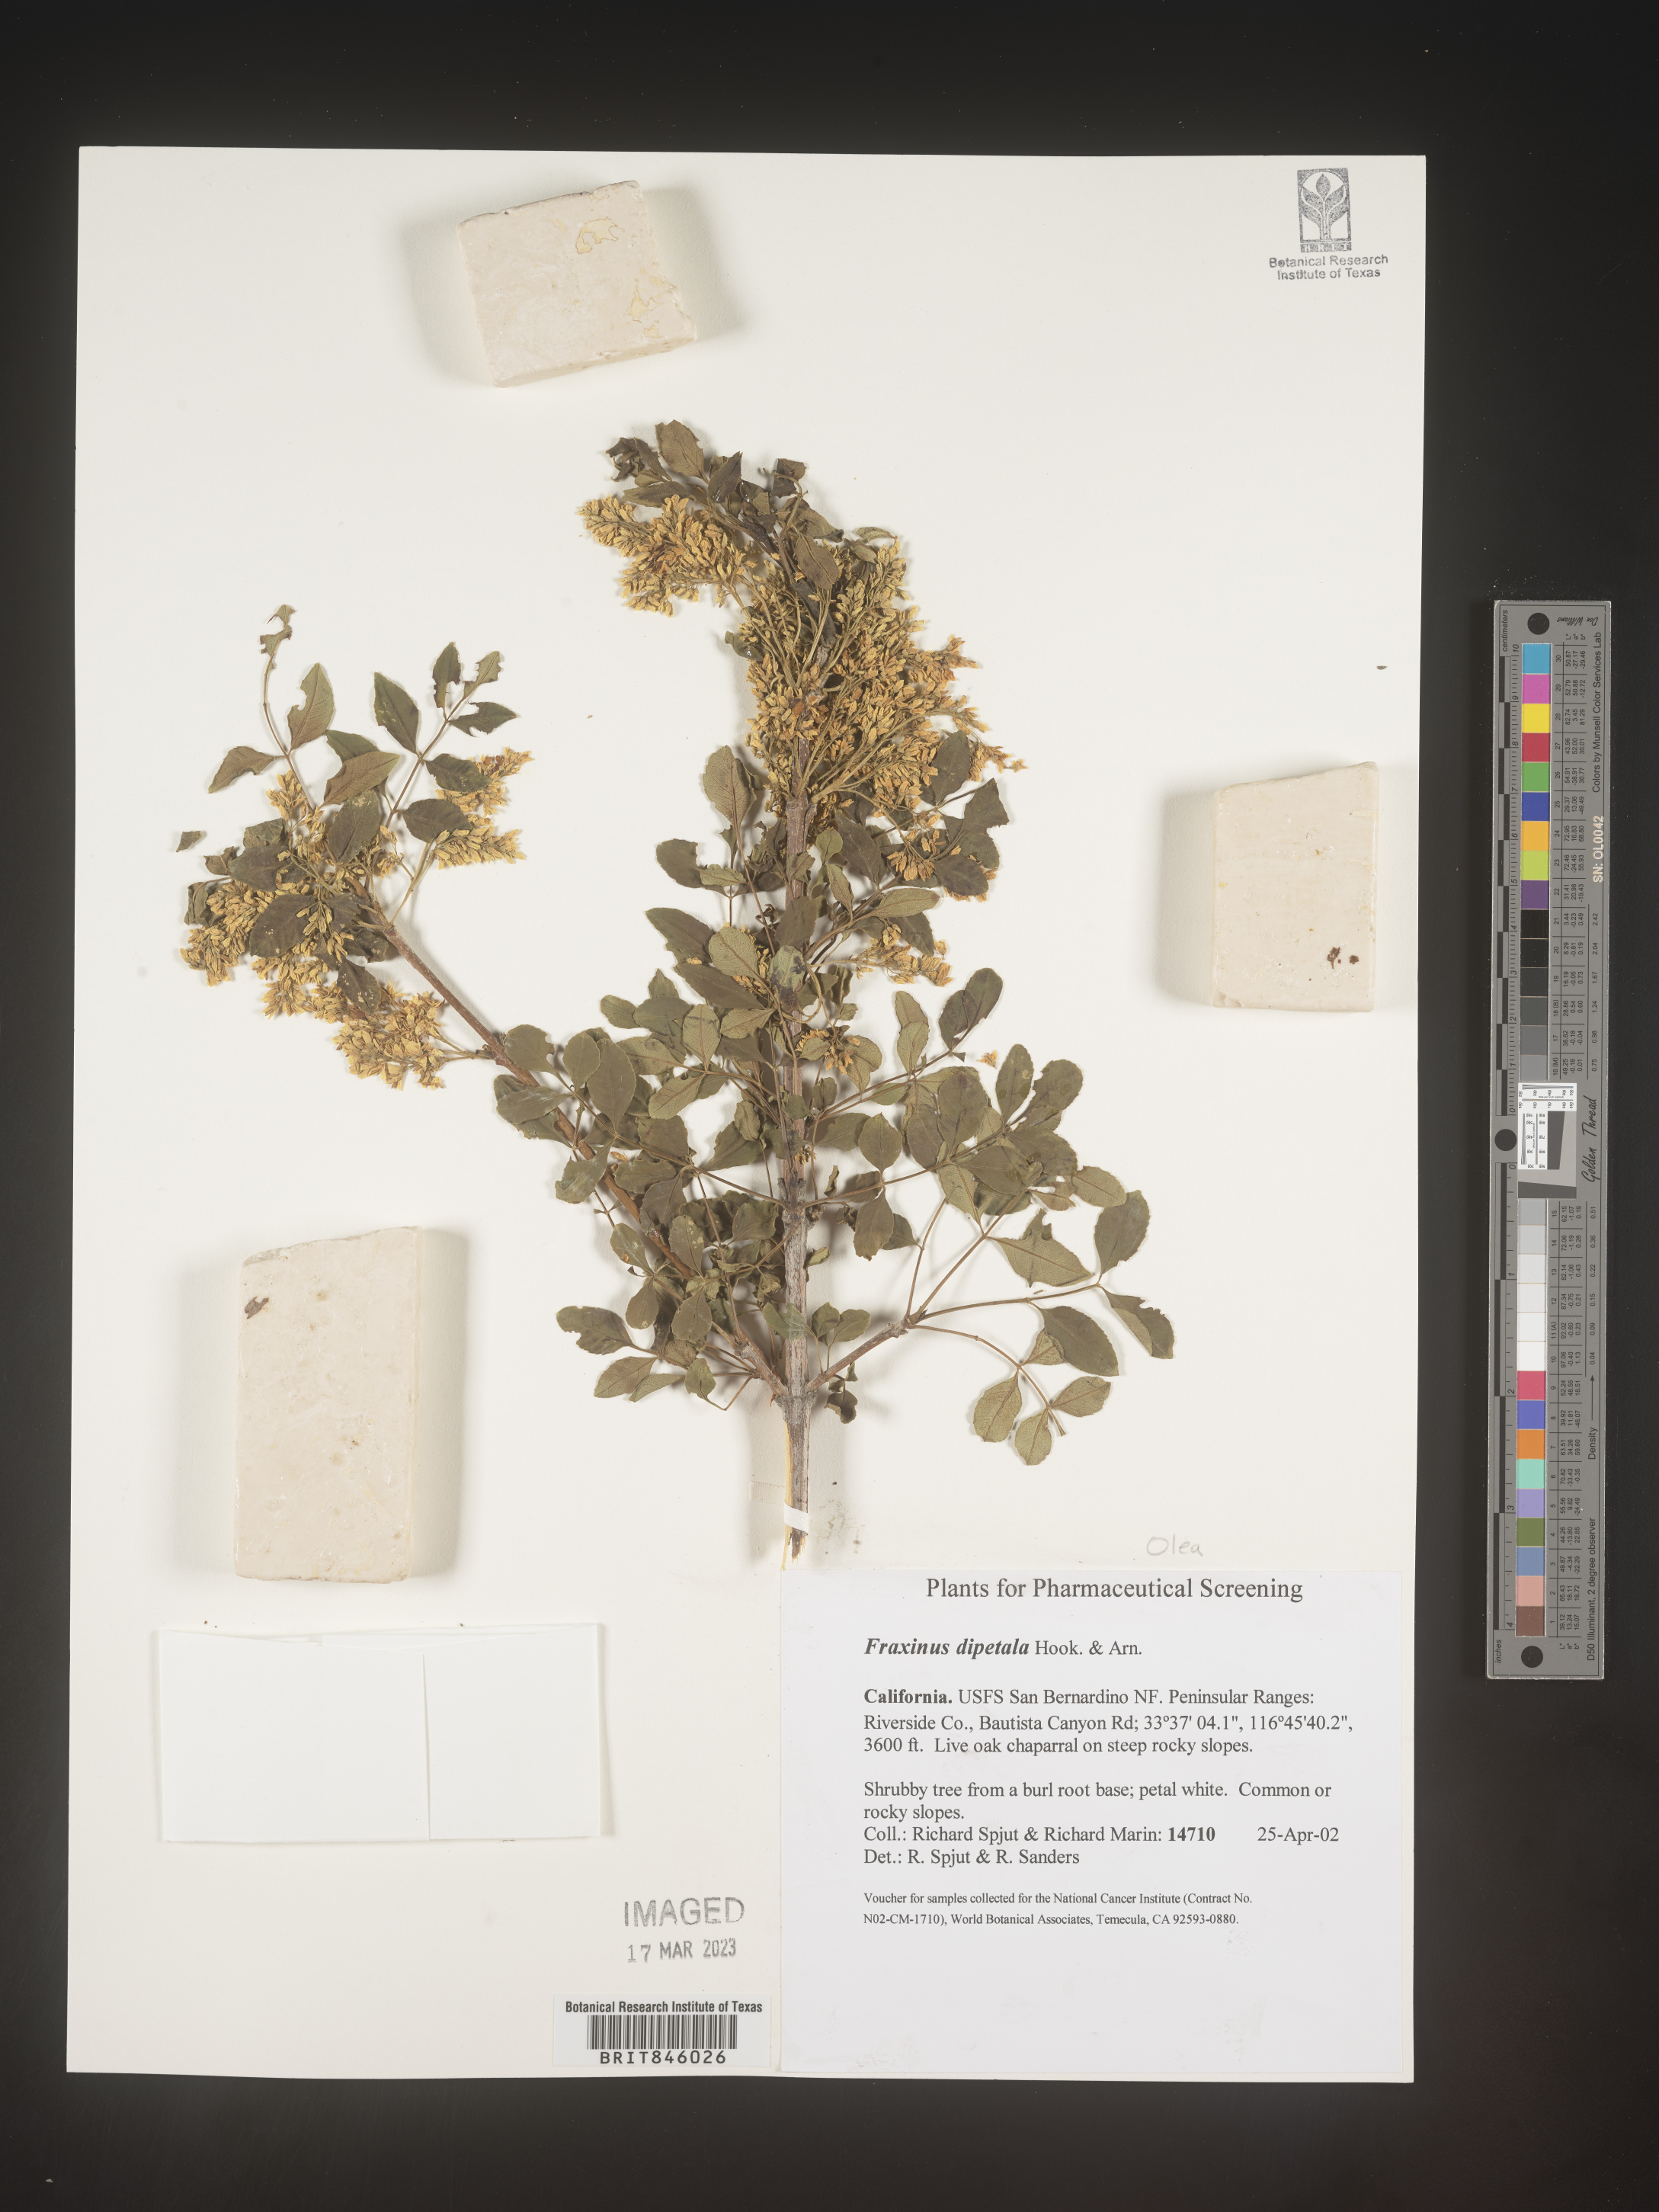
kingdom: Plantae
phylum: Tracheophyta
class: Magnoliopsida
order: Lamiales
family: Oleaceae
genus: Fraxinus
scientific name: Fraxinus dipetala
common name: California ash
